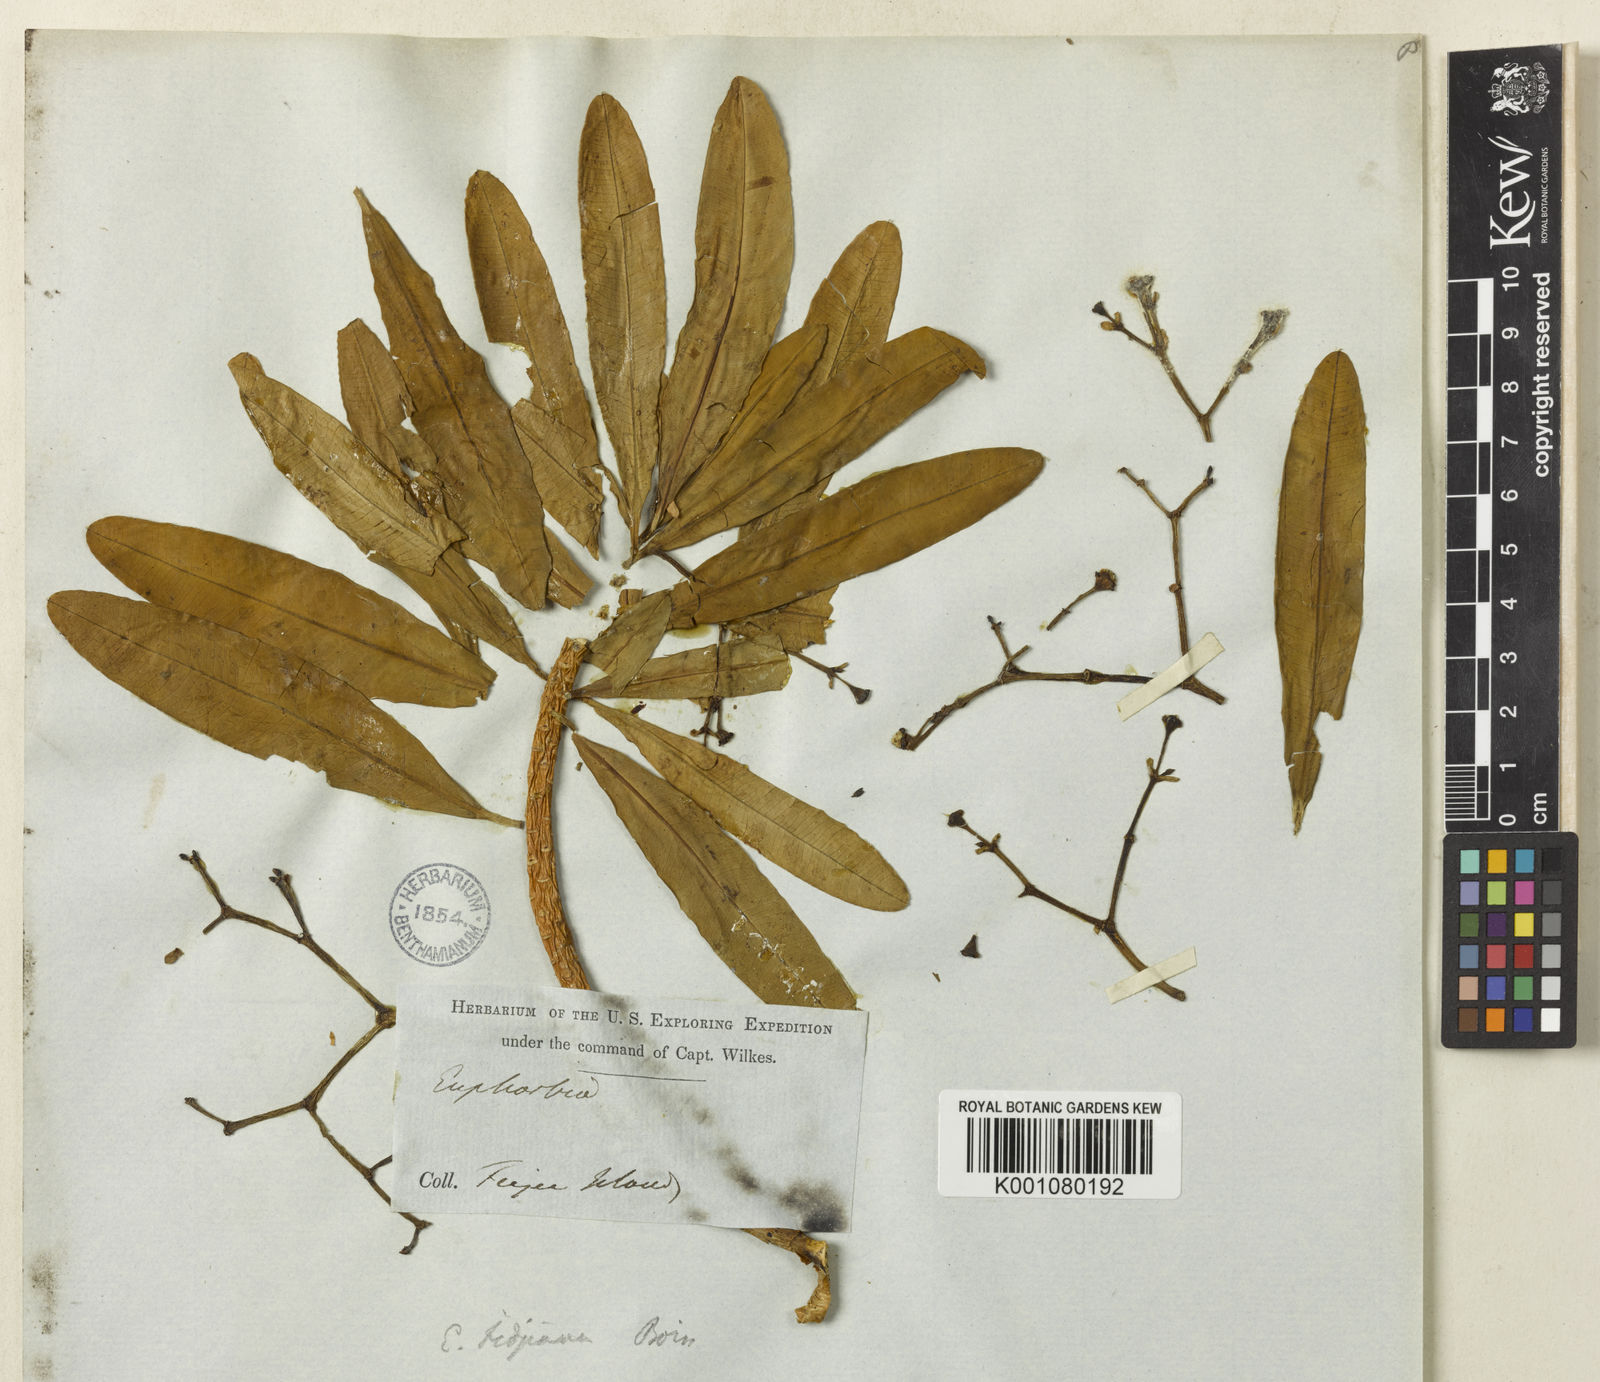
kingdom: Plantae
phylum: Tracheophyta
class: Magnoliopsida
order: Malpighiales
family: Euphorbiaceae
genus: Euphorbia
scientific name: Euphorbia plumerioides
